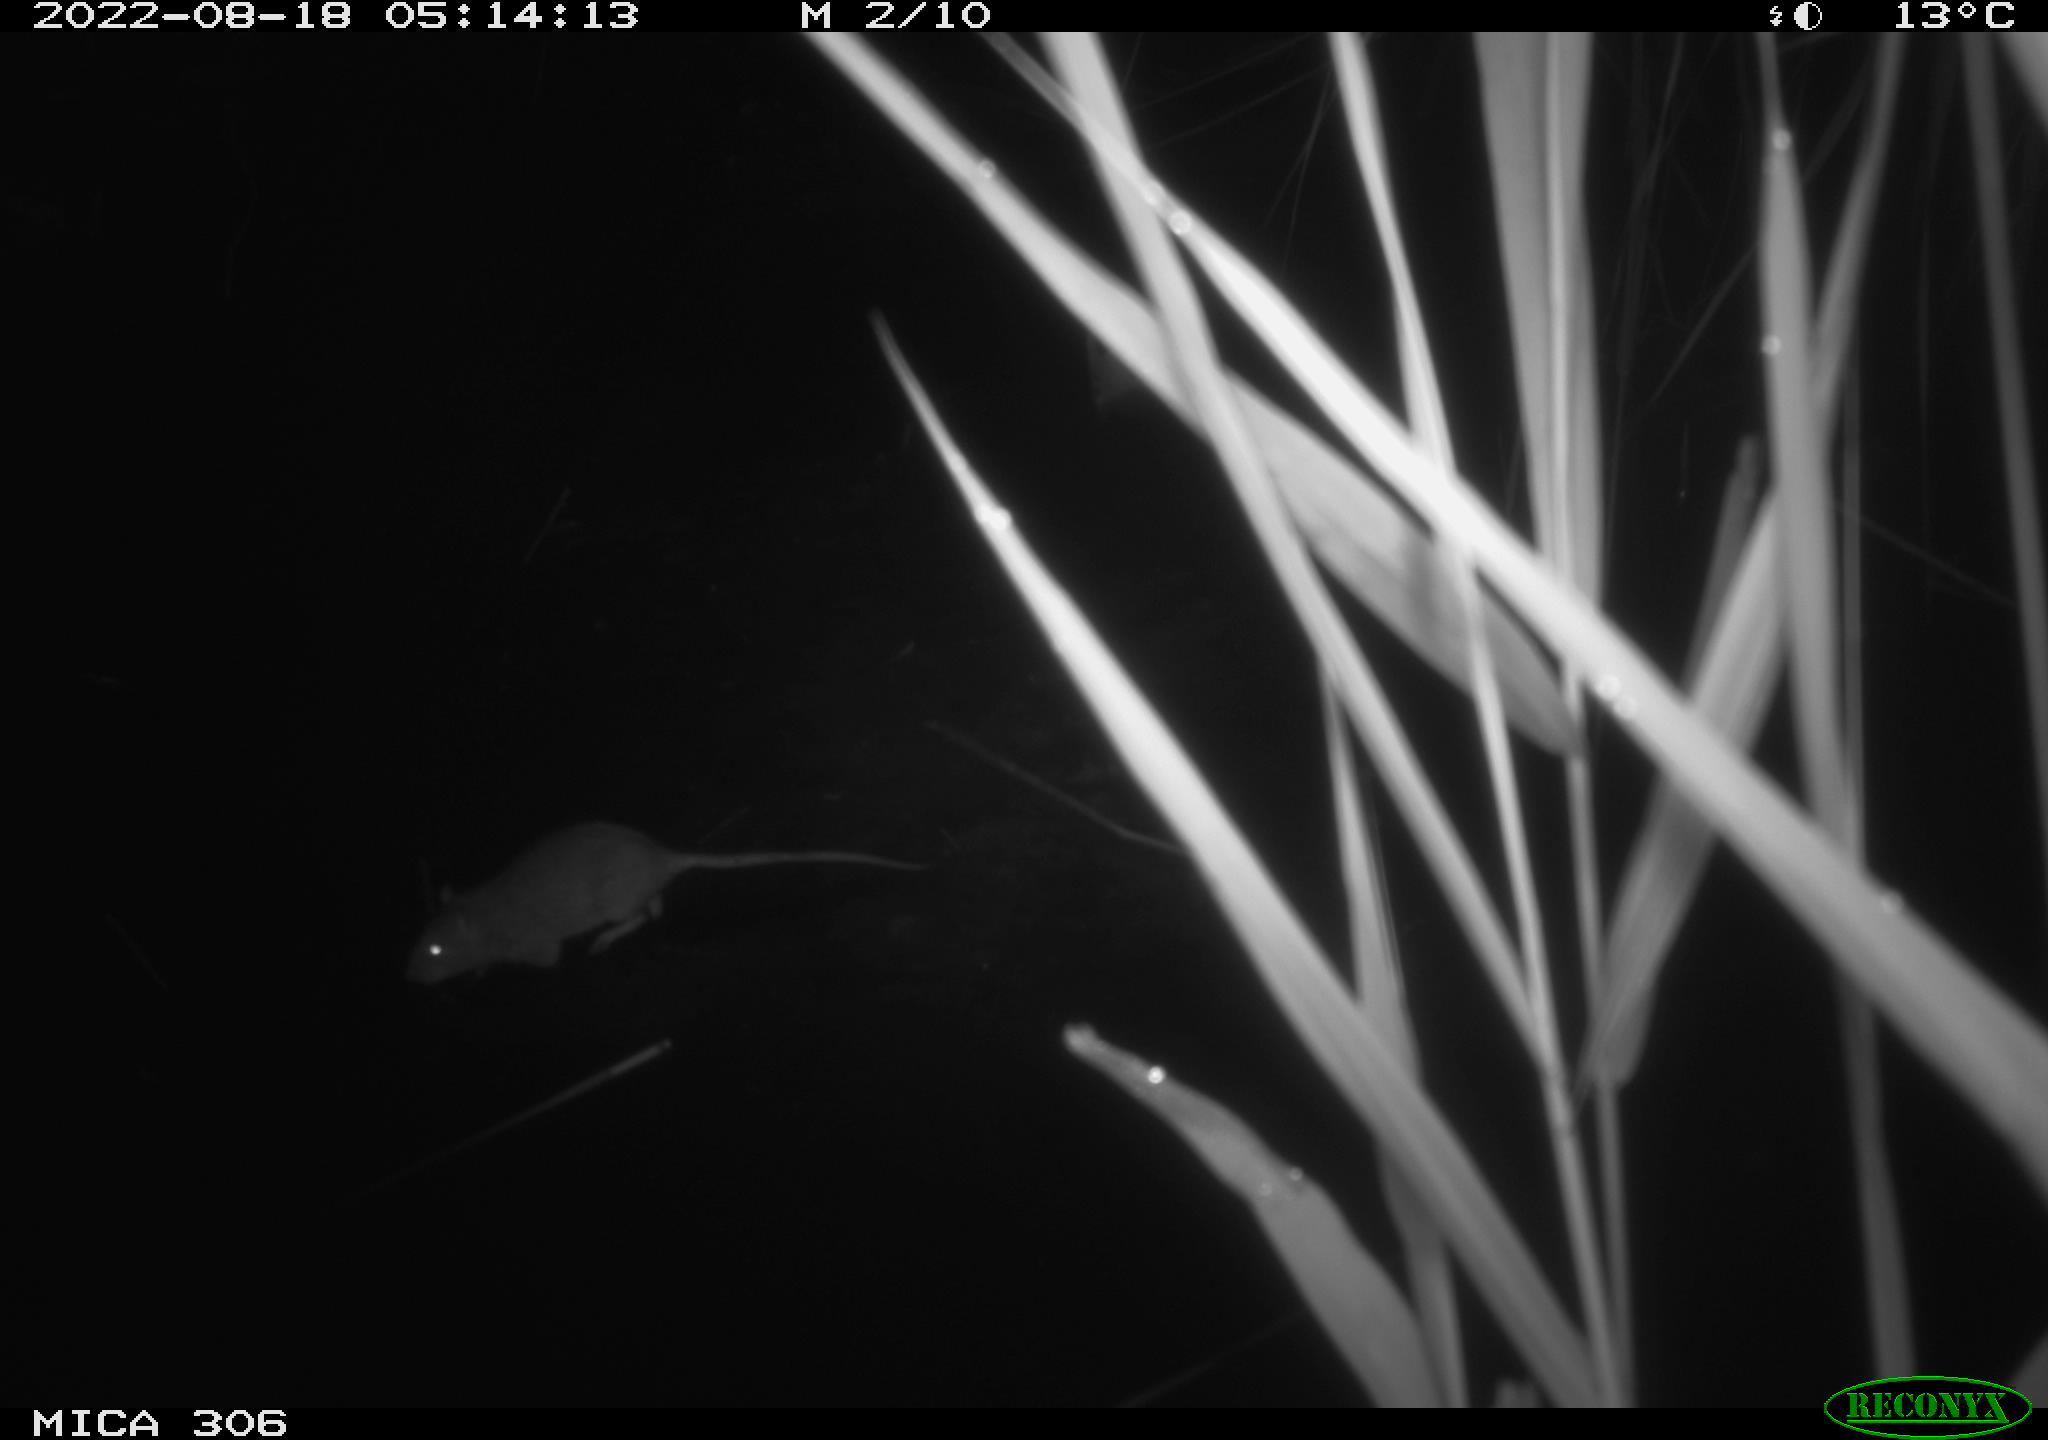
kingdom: Animalia
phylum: Chordata
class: Mammalia
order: Rodentia
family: Muridae
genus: Rattus
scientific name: Rattus norvegicus
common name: Brown rat
